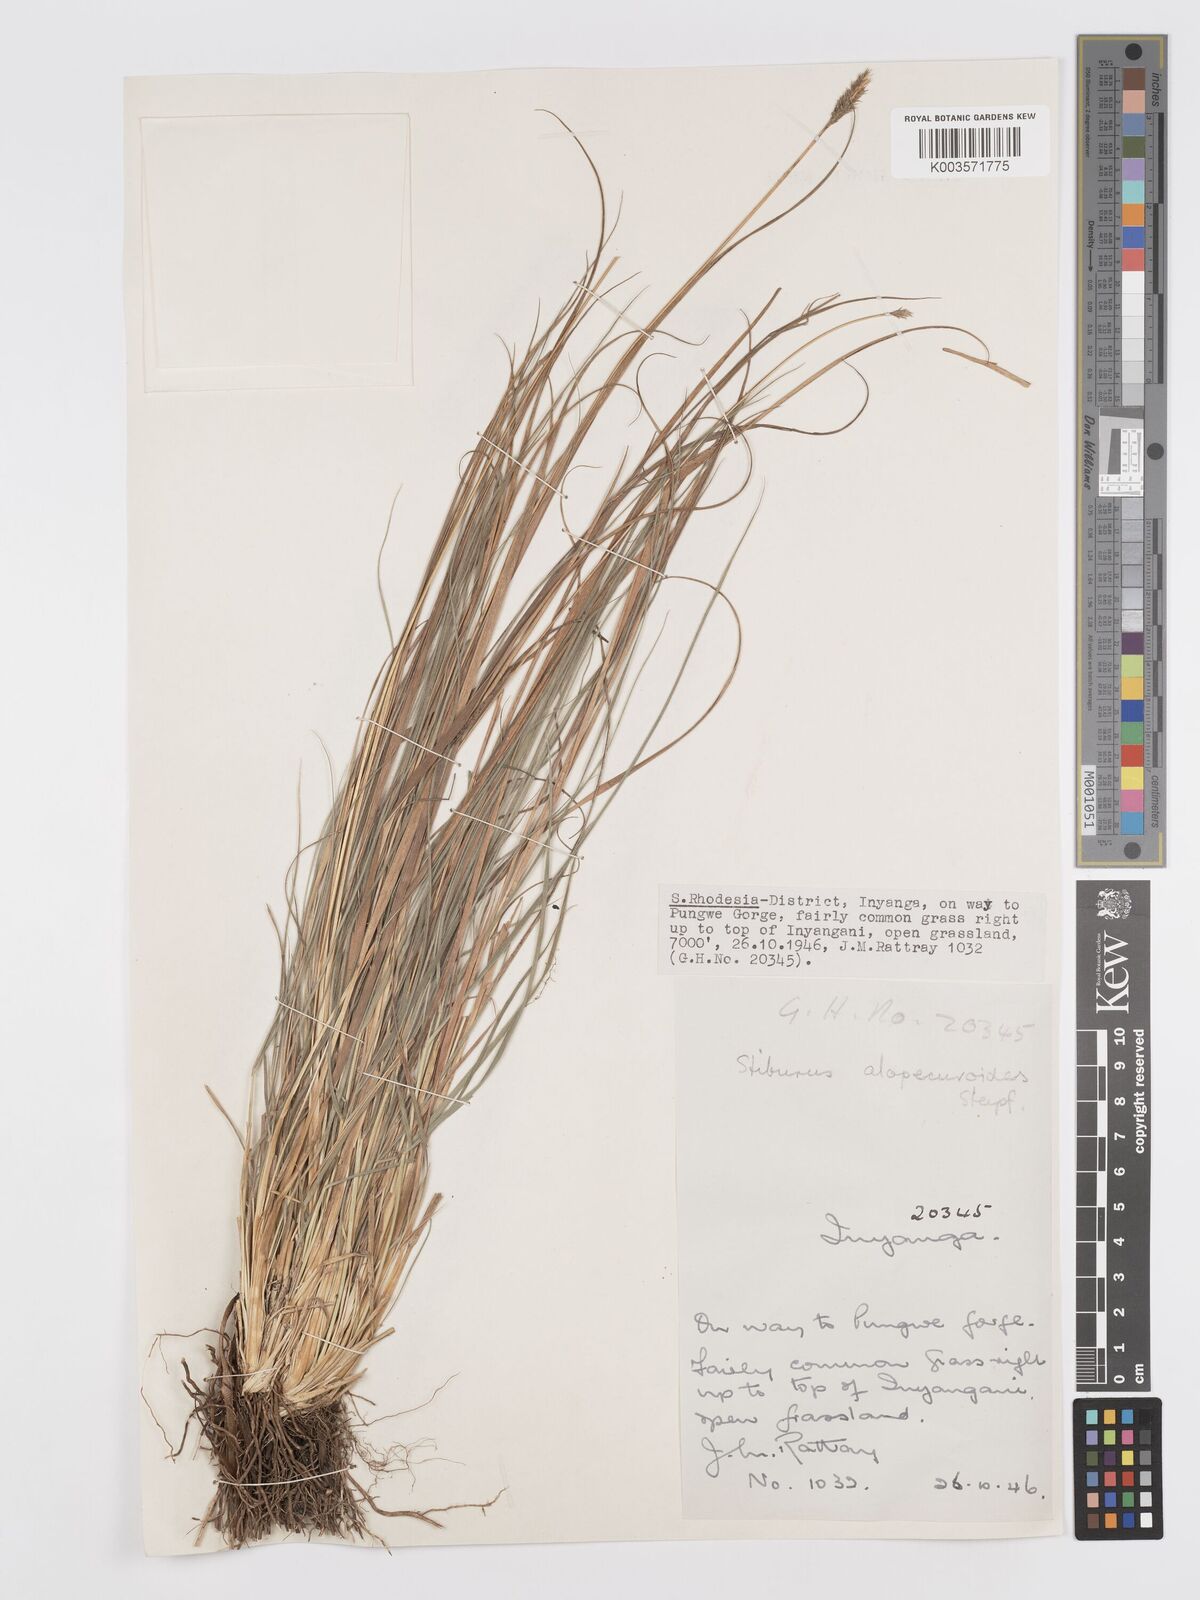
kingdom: Plantae
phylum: Tracheophyta
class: Liliopsida
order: Poales
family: Poaceae
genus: Stiburus
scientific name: Stiburus alopecuroides
